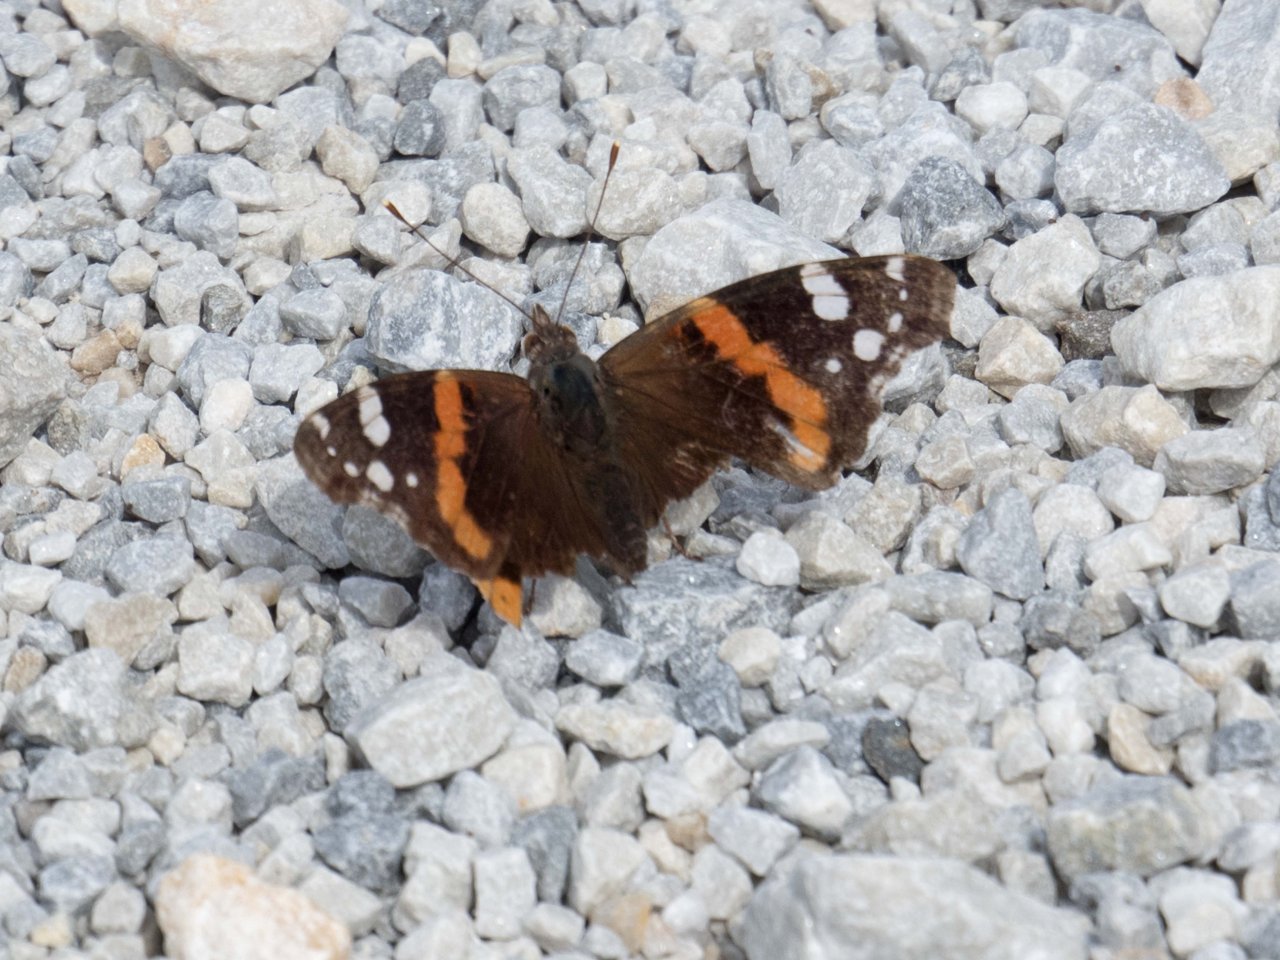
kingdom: Animalia
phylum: Arthropoda
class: Insecta
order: Lepidoptera
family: Nymphalidae
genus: Vanessa
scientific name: Vanessa atalanta
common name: Red Admiral
